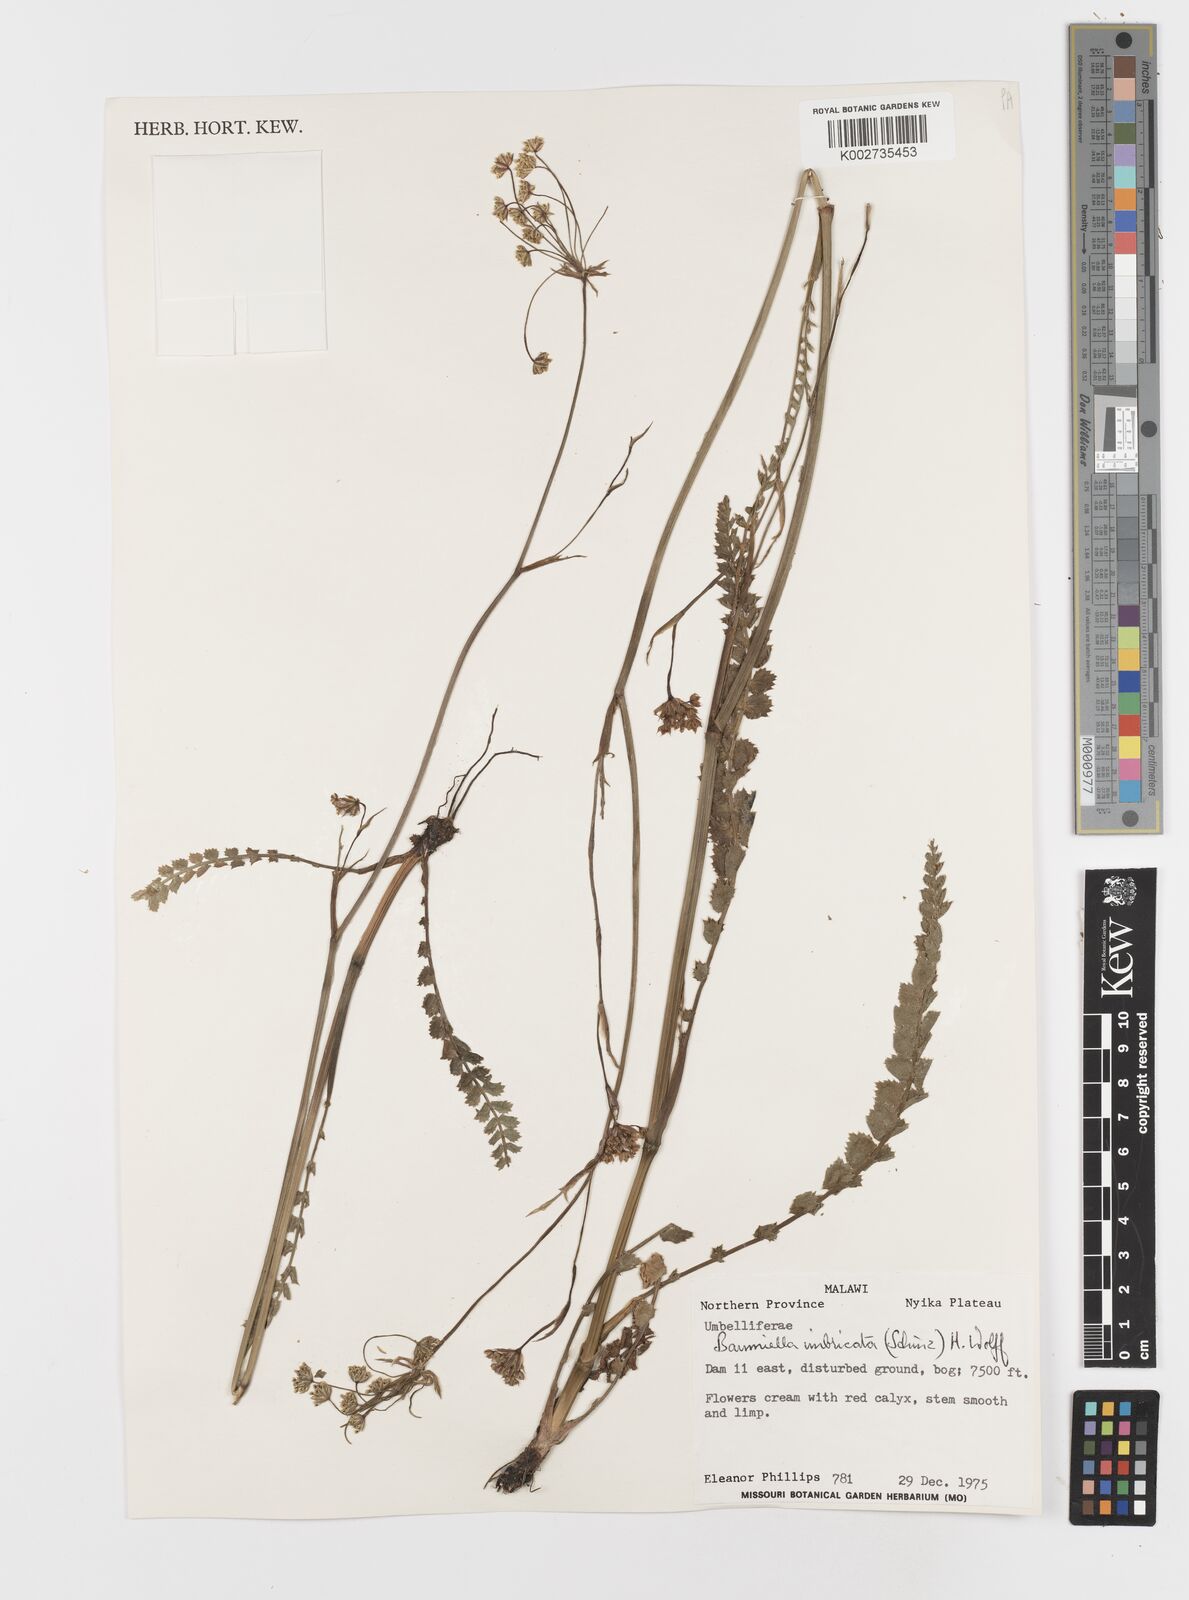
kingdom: Plantae
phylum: Tracheophyta
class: Magnoliopsida
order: Apiales
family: Apiaceae
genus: Berula
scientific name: Berula imbricata
